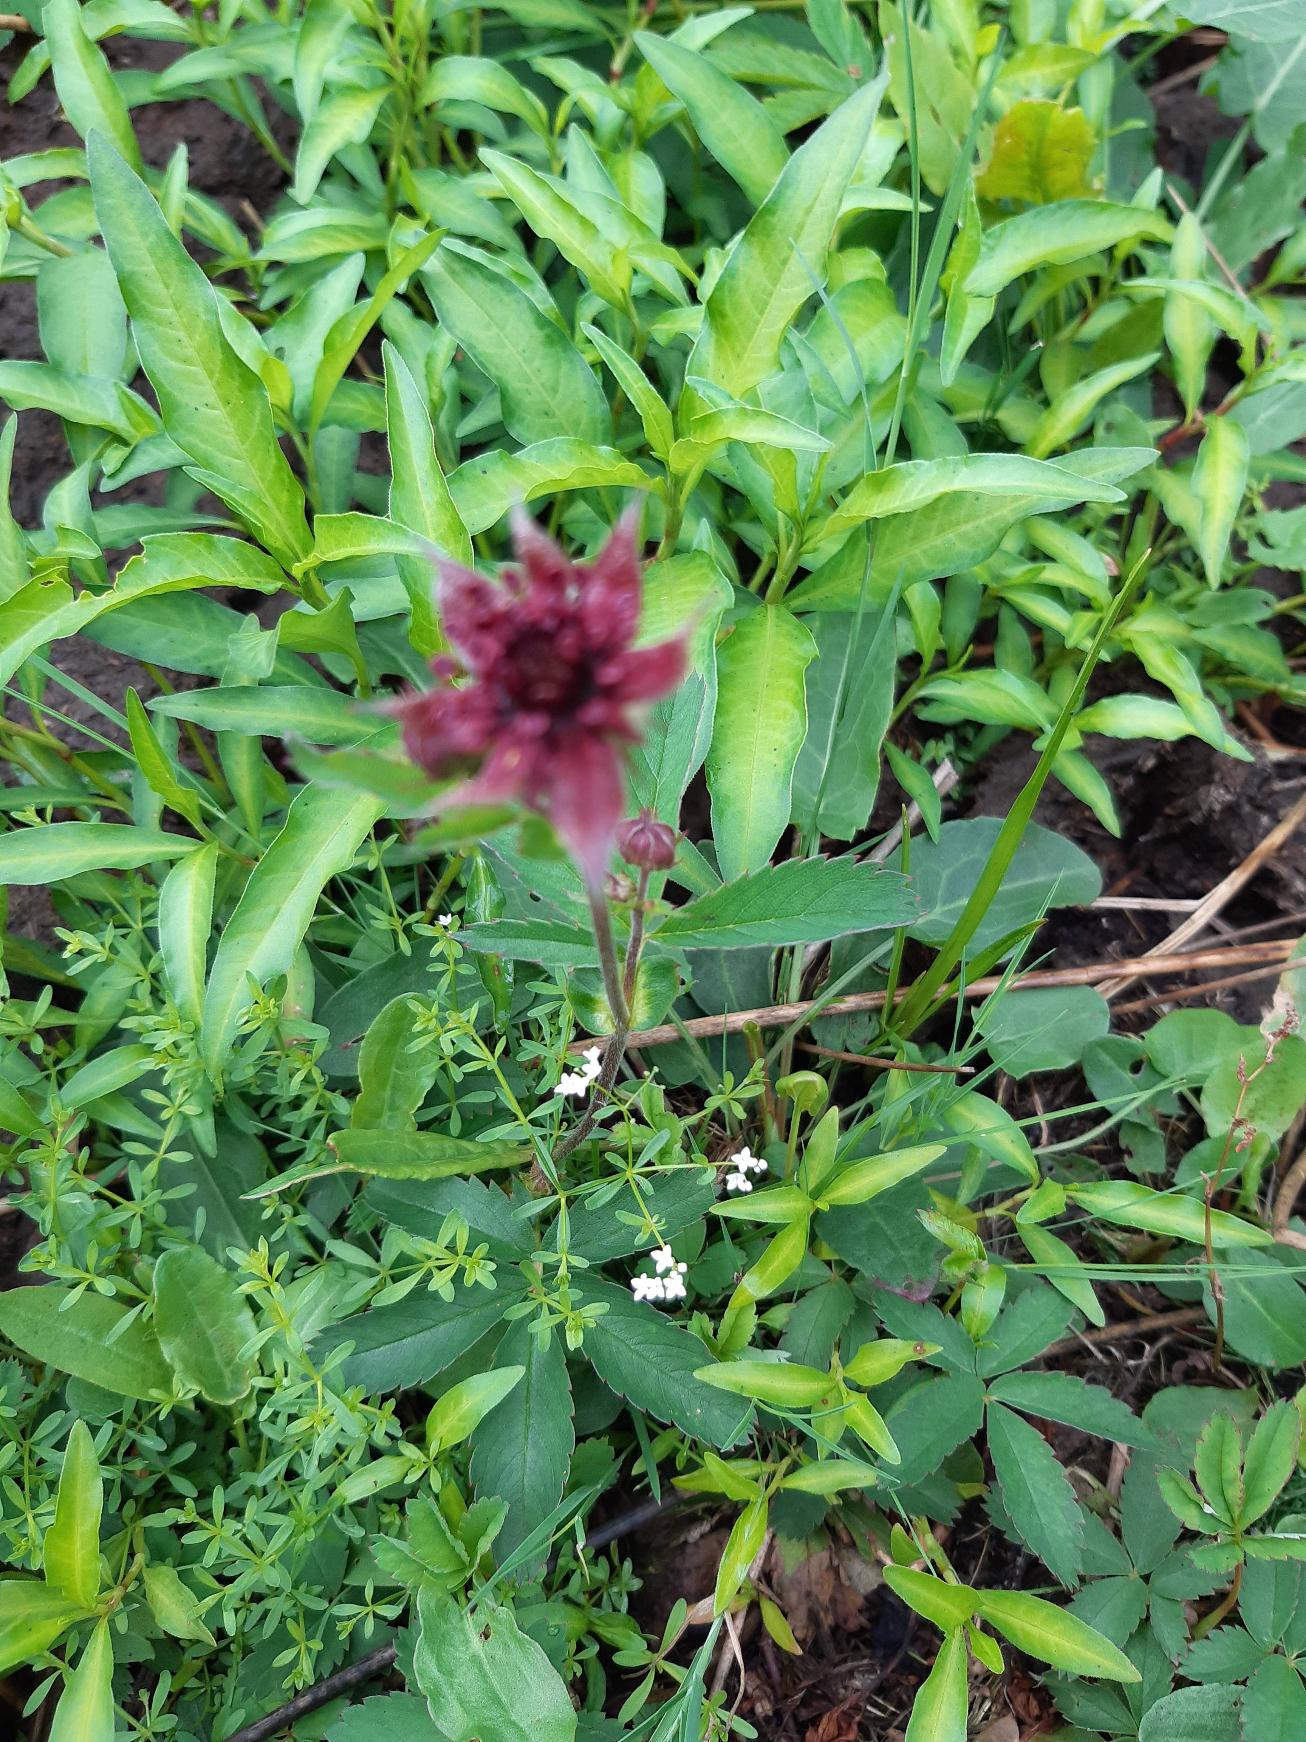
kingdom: Plantae
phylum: Tracheophyta
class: Magnoliopsida
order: Rosales
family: Rosaceae
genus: Comarum
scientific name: Comarum palustre
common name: Kragefod
